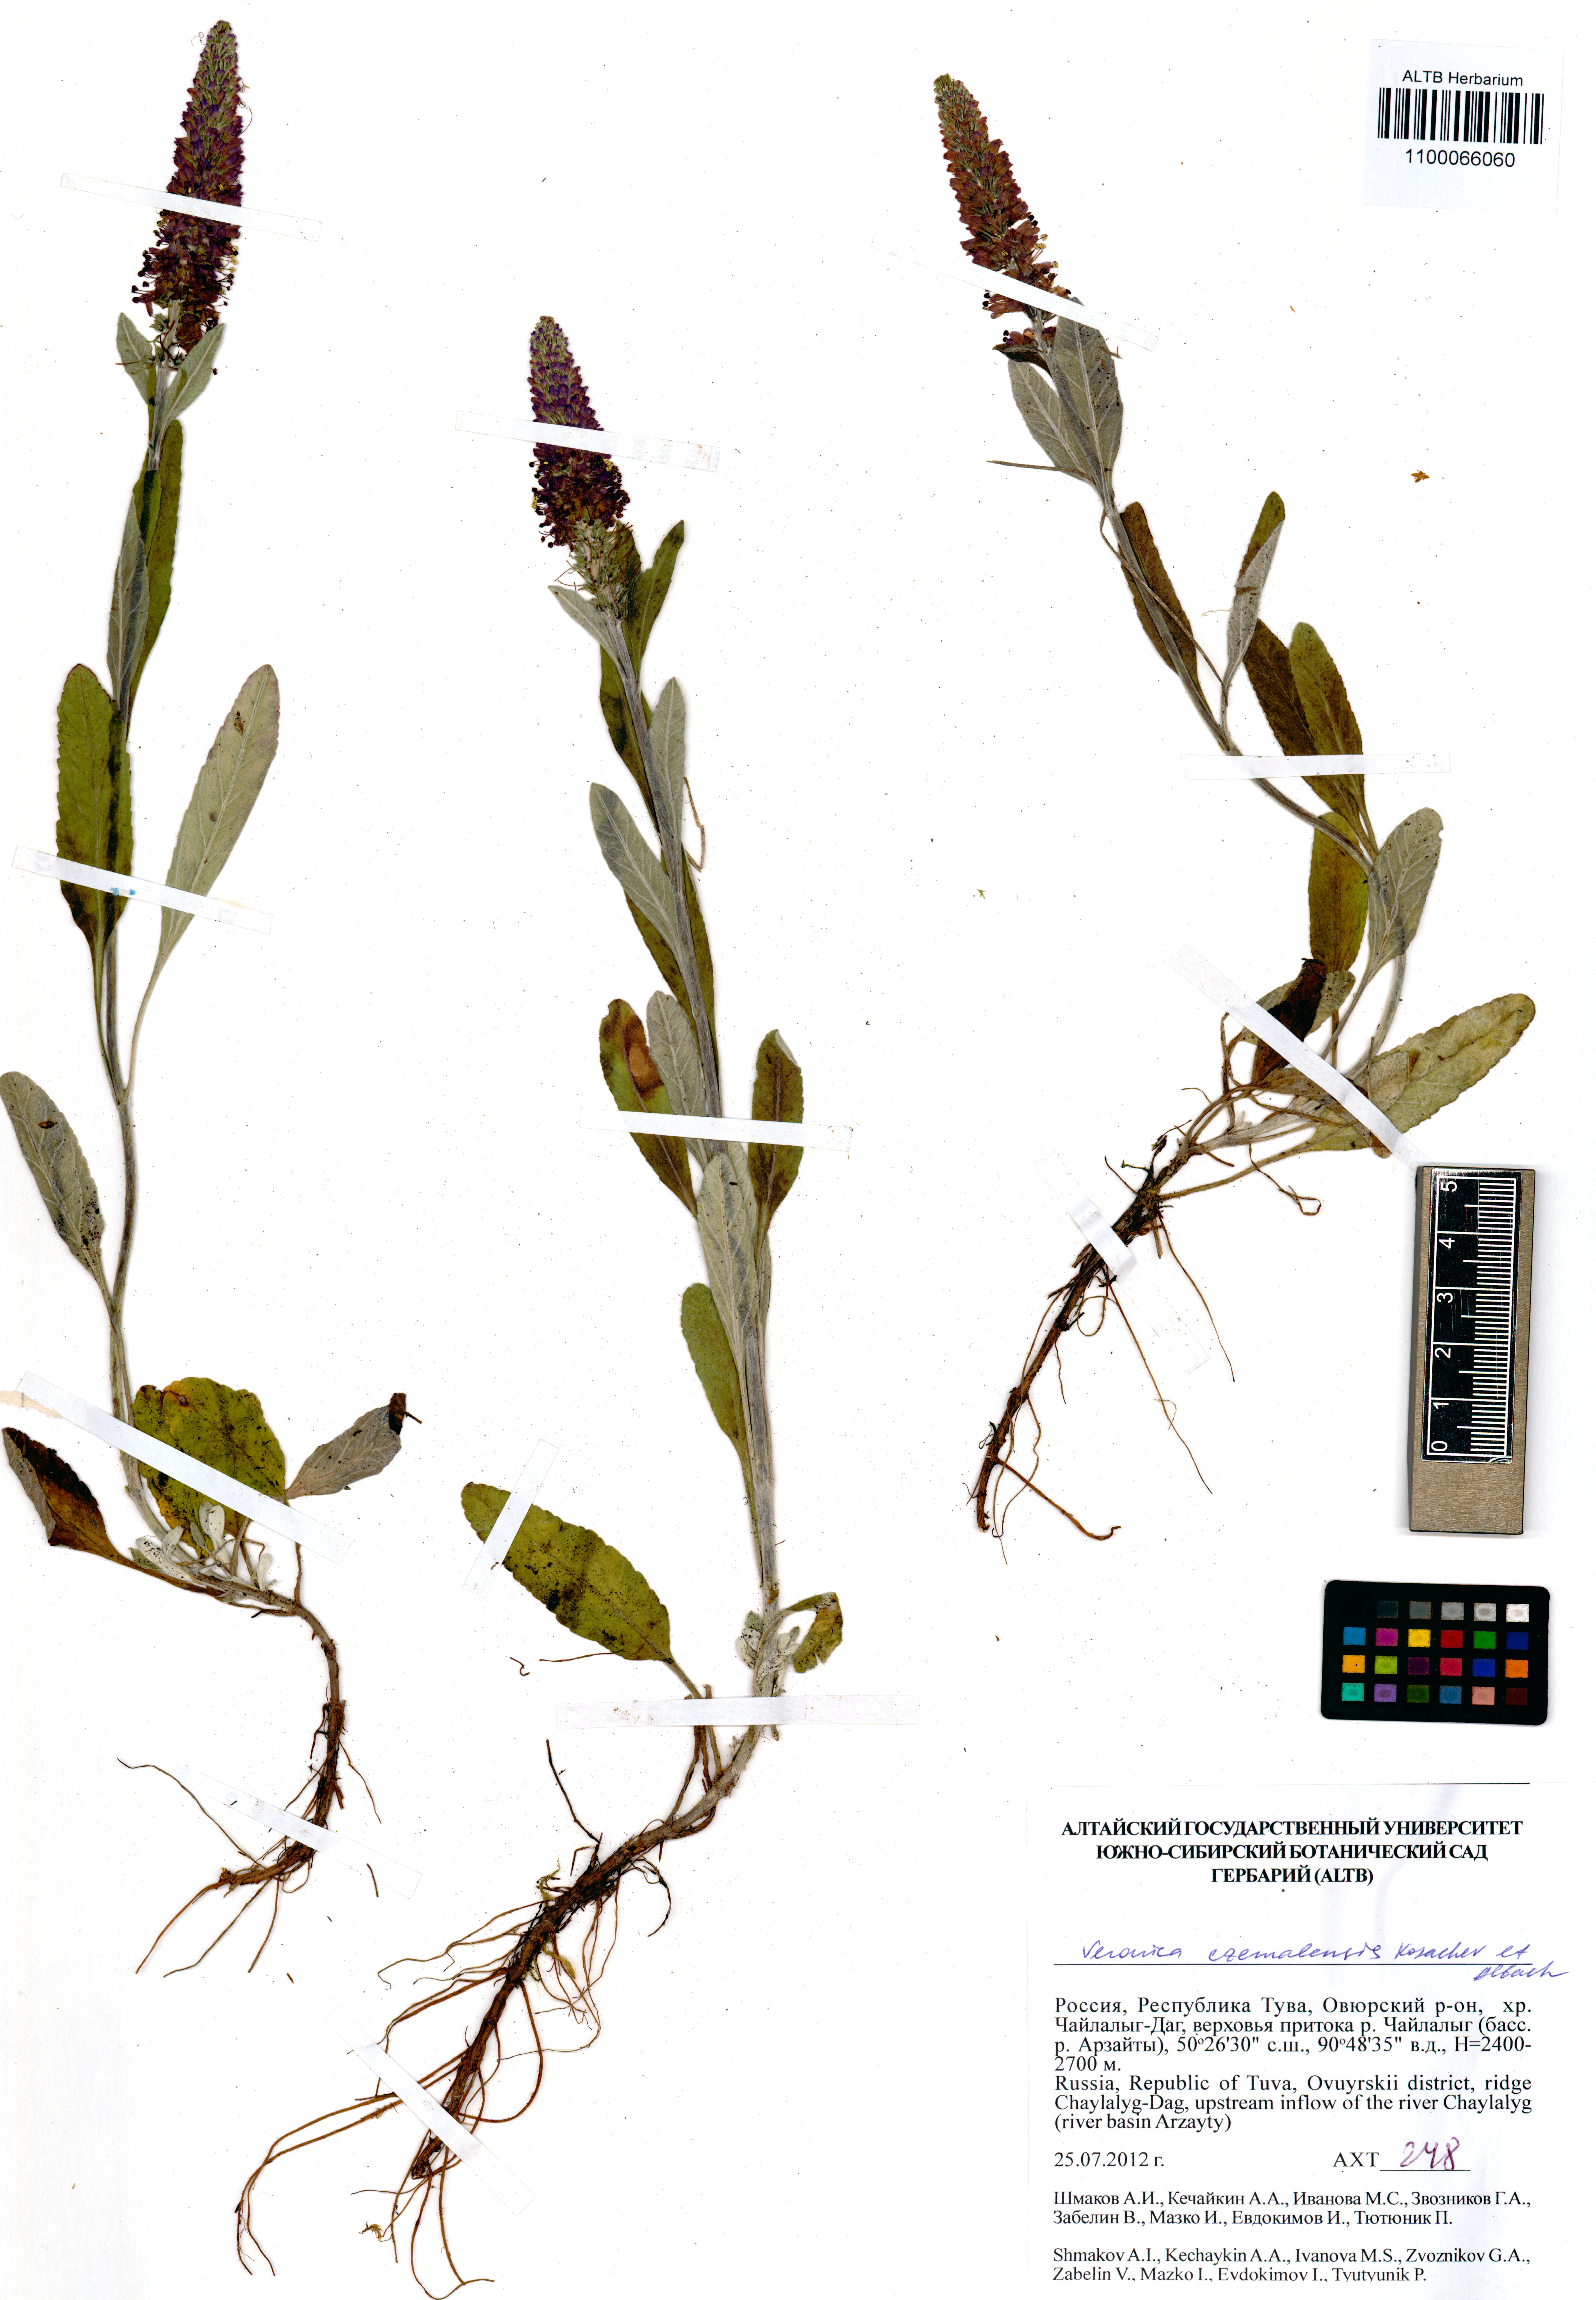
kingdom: Plantae
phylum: Tracheophyta
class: Magnoliopsida
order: Lamiales
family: Plantaginaceae
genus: Veronica
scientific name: Veronica czemalensis
